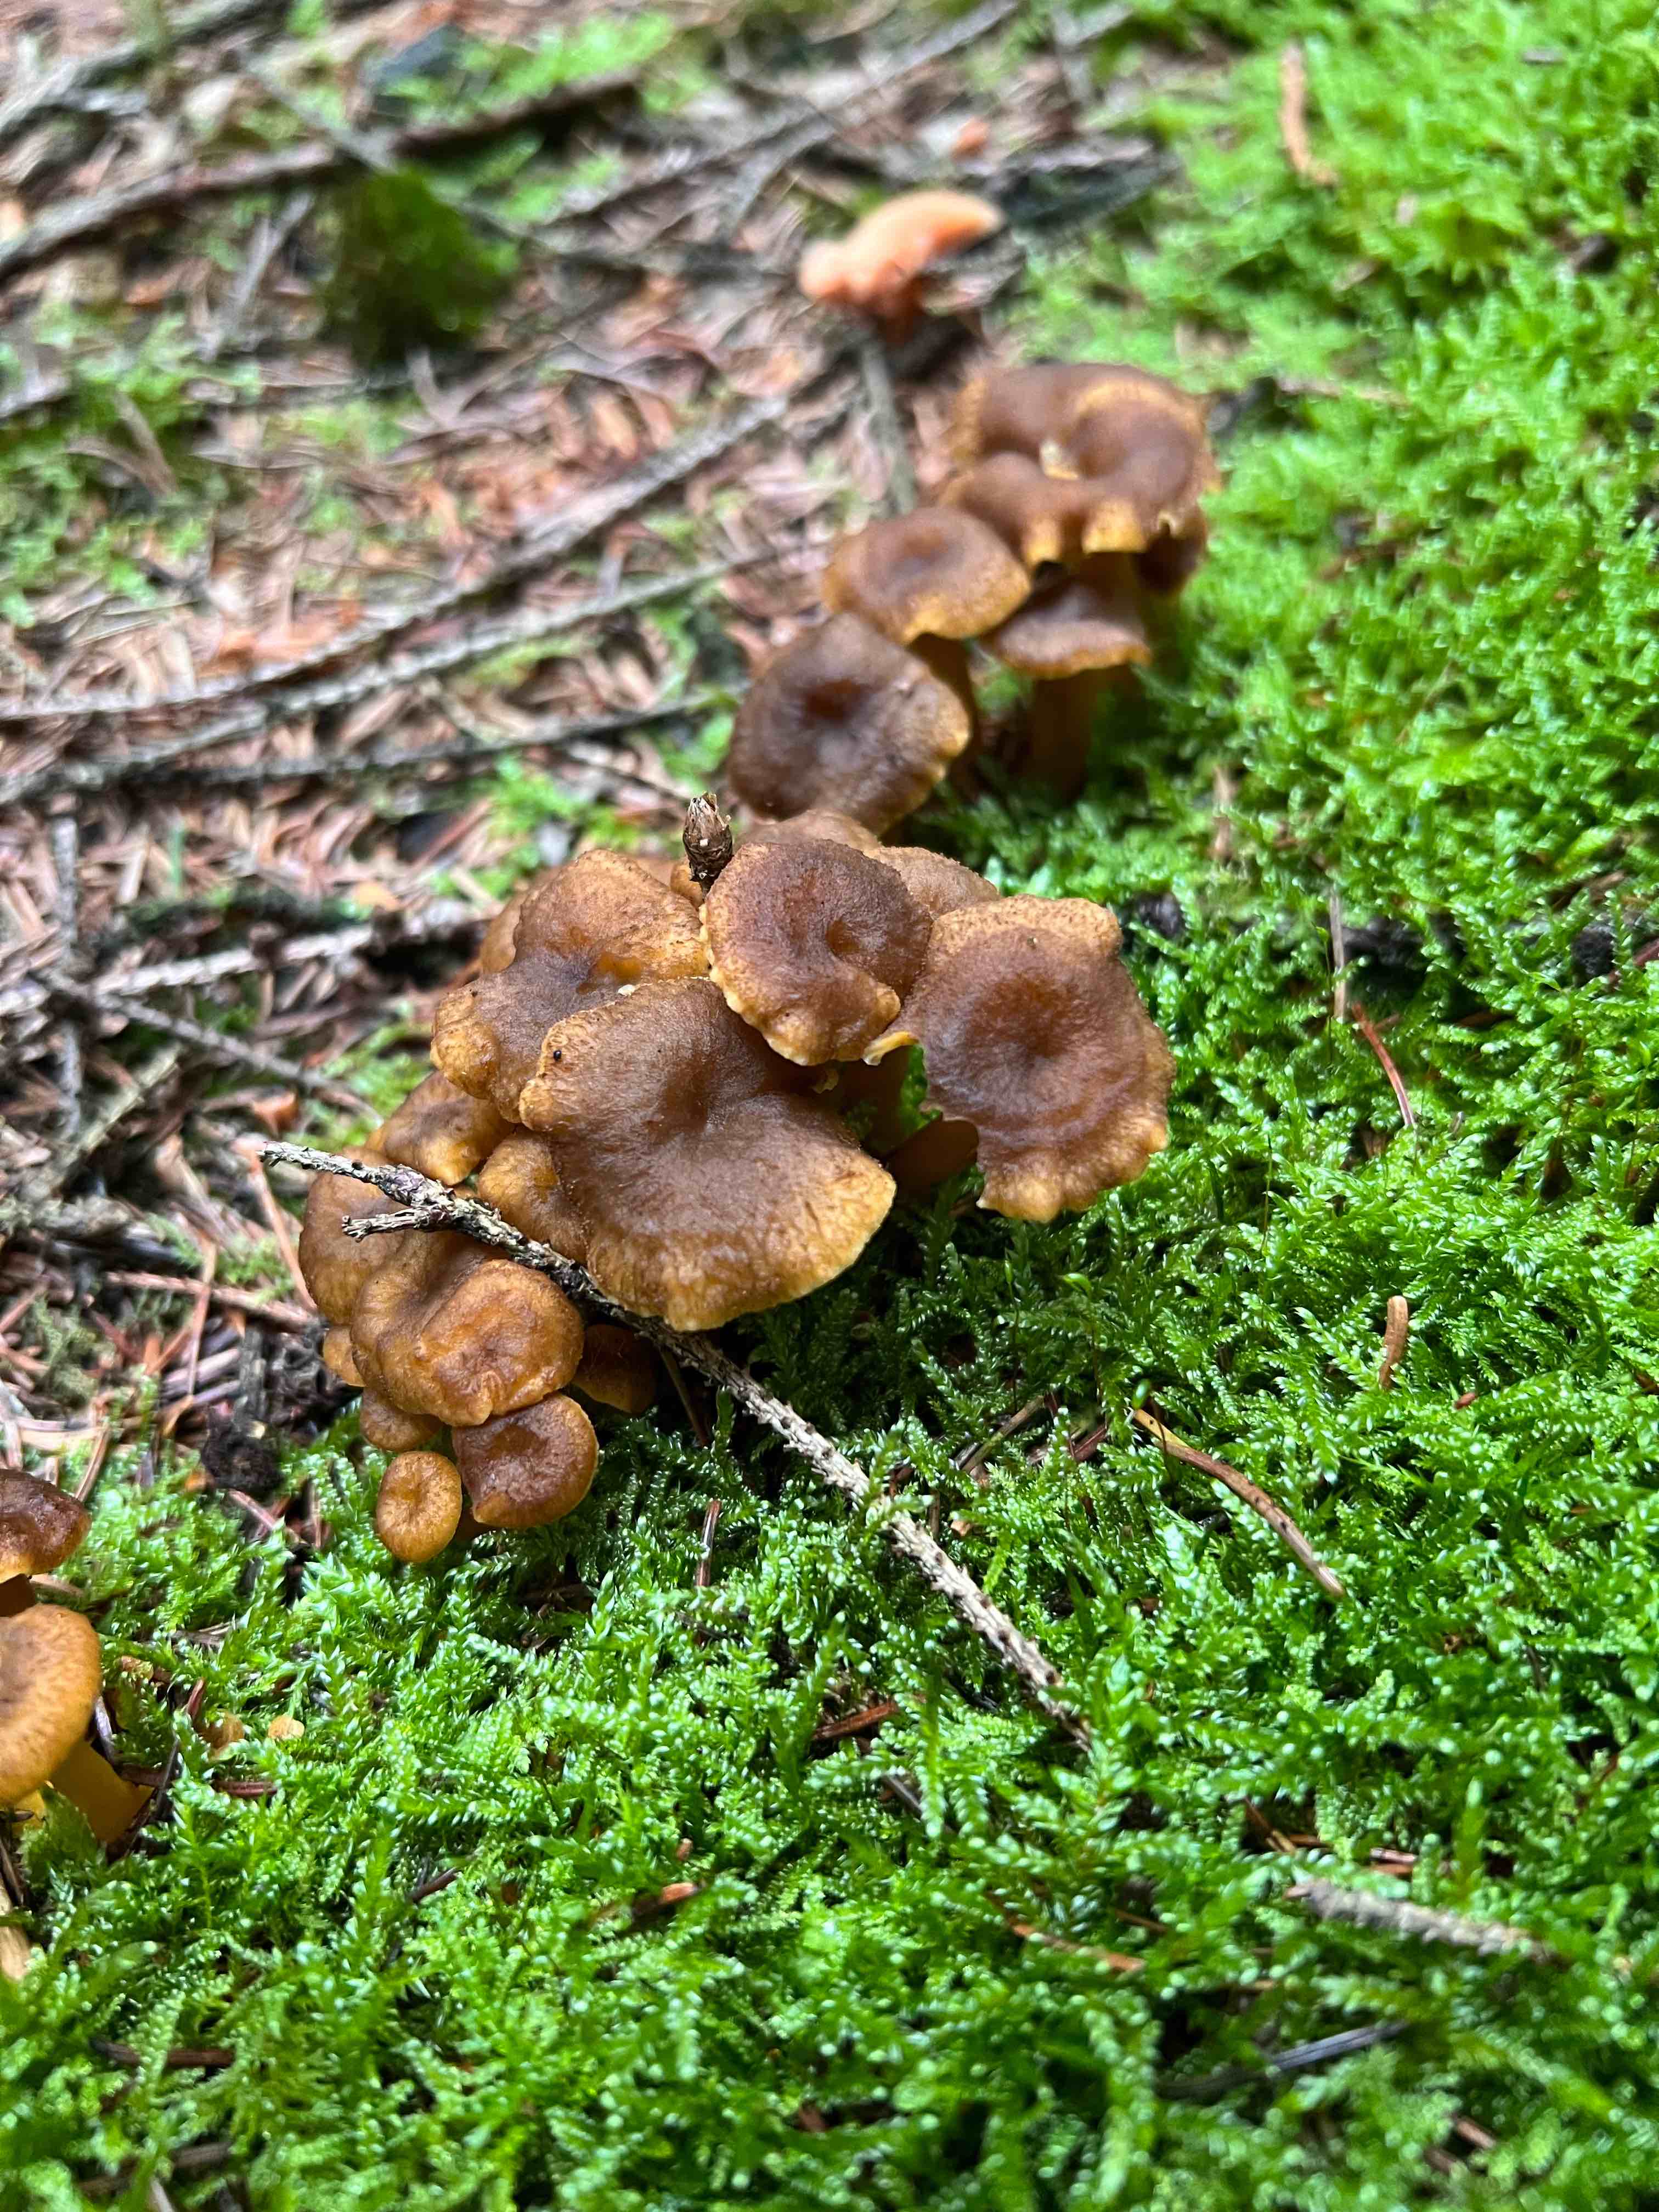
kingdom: Fungi
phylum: Basidiomycota
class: Agaricomycetes
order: Cantharellales
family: Hydnaceae
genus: Craterellus
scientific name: Craterellus tubaeformis
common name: tragt-kantarel
